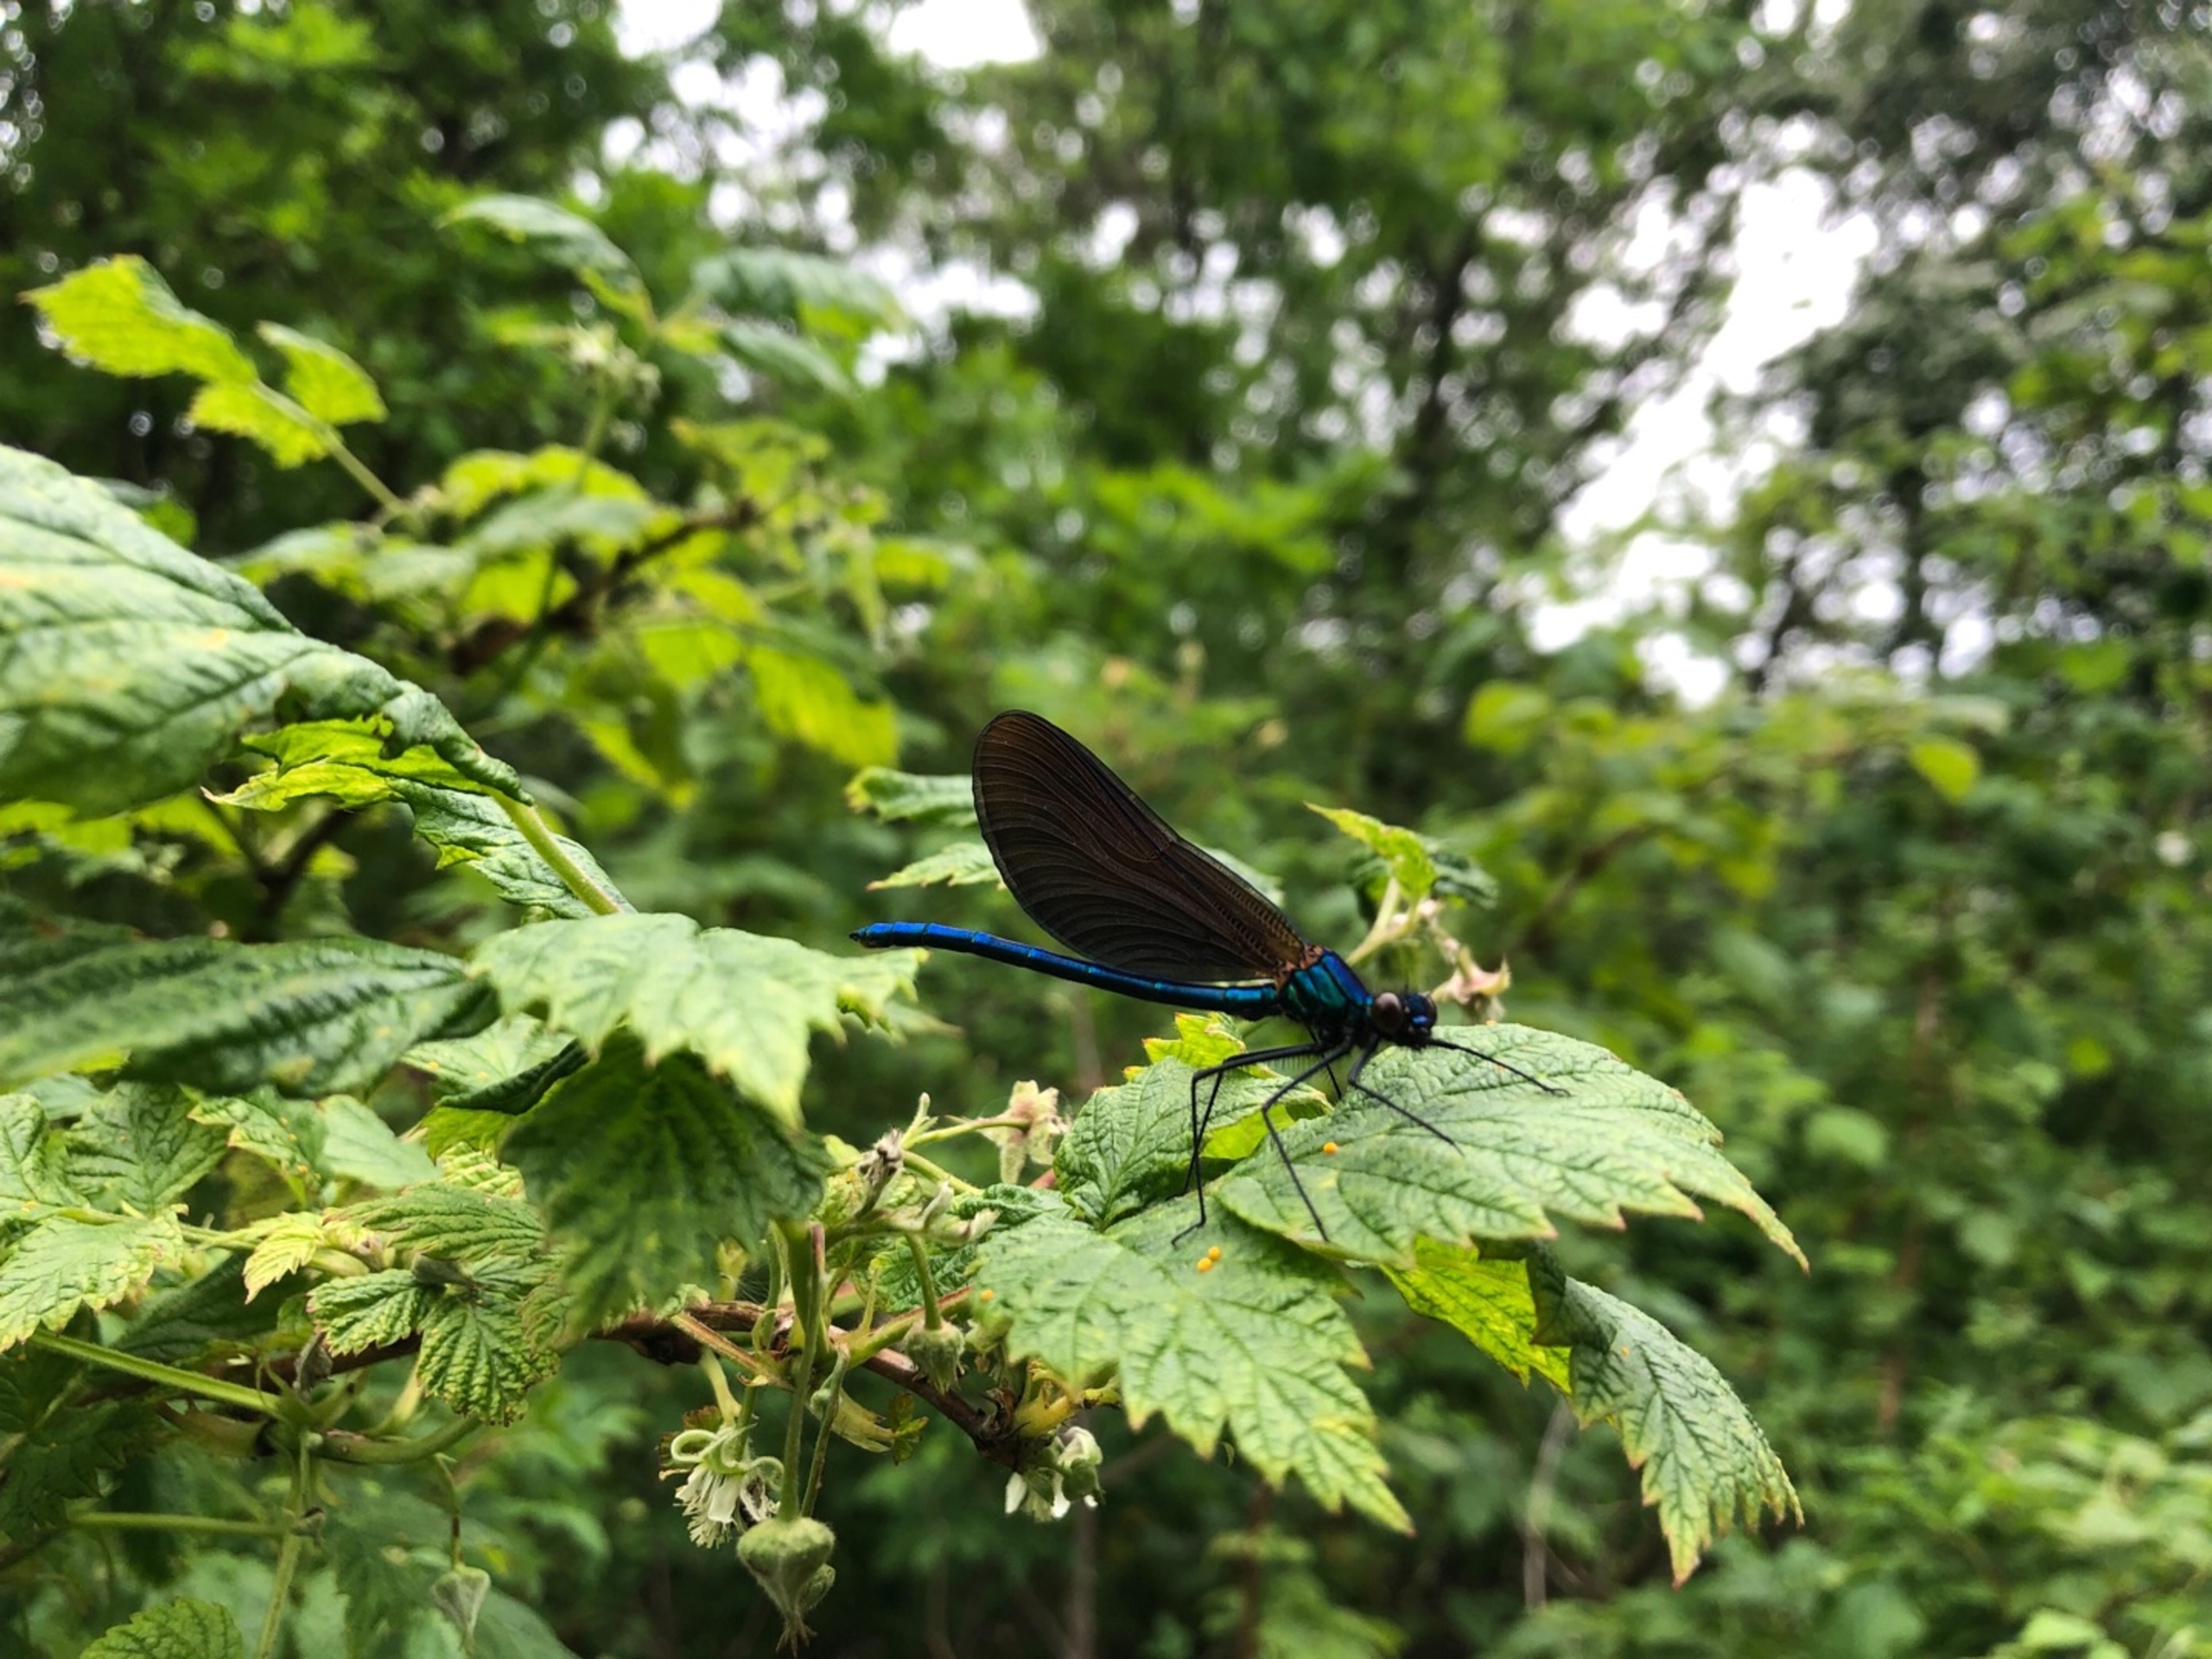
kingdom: Animalia
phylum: Arthropoda
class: Insecta
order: Odonata
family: Calopterygidae
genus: Calopteryx
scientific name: Calopteryx virgo
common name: Blåvinget pragtvandnymfe
